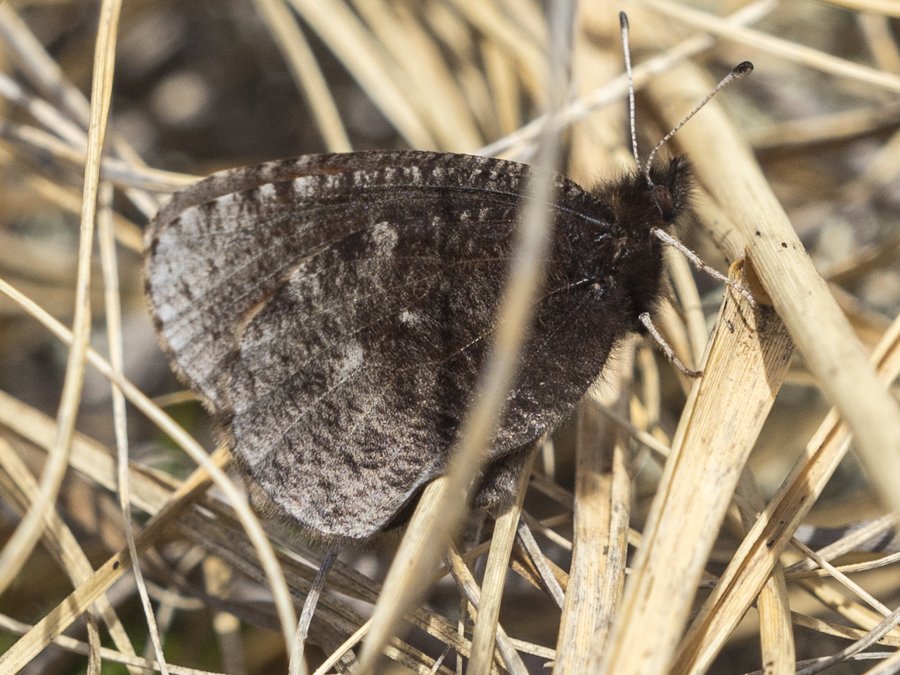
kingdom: Animalia
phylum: Arthropoda
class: Insecta
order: Lepidoptera
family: Nymphalidae
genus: Erebia
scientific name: Erebia discoidalis
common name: Red-disked Alpine
